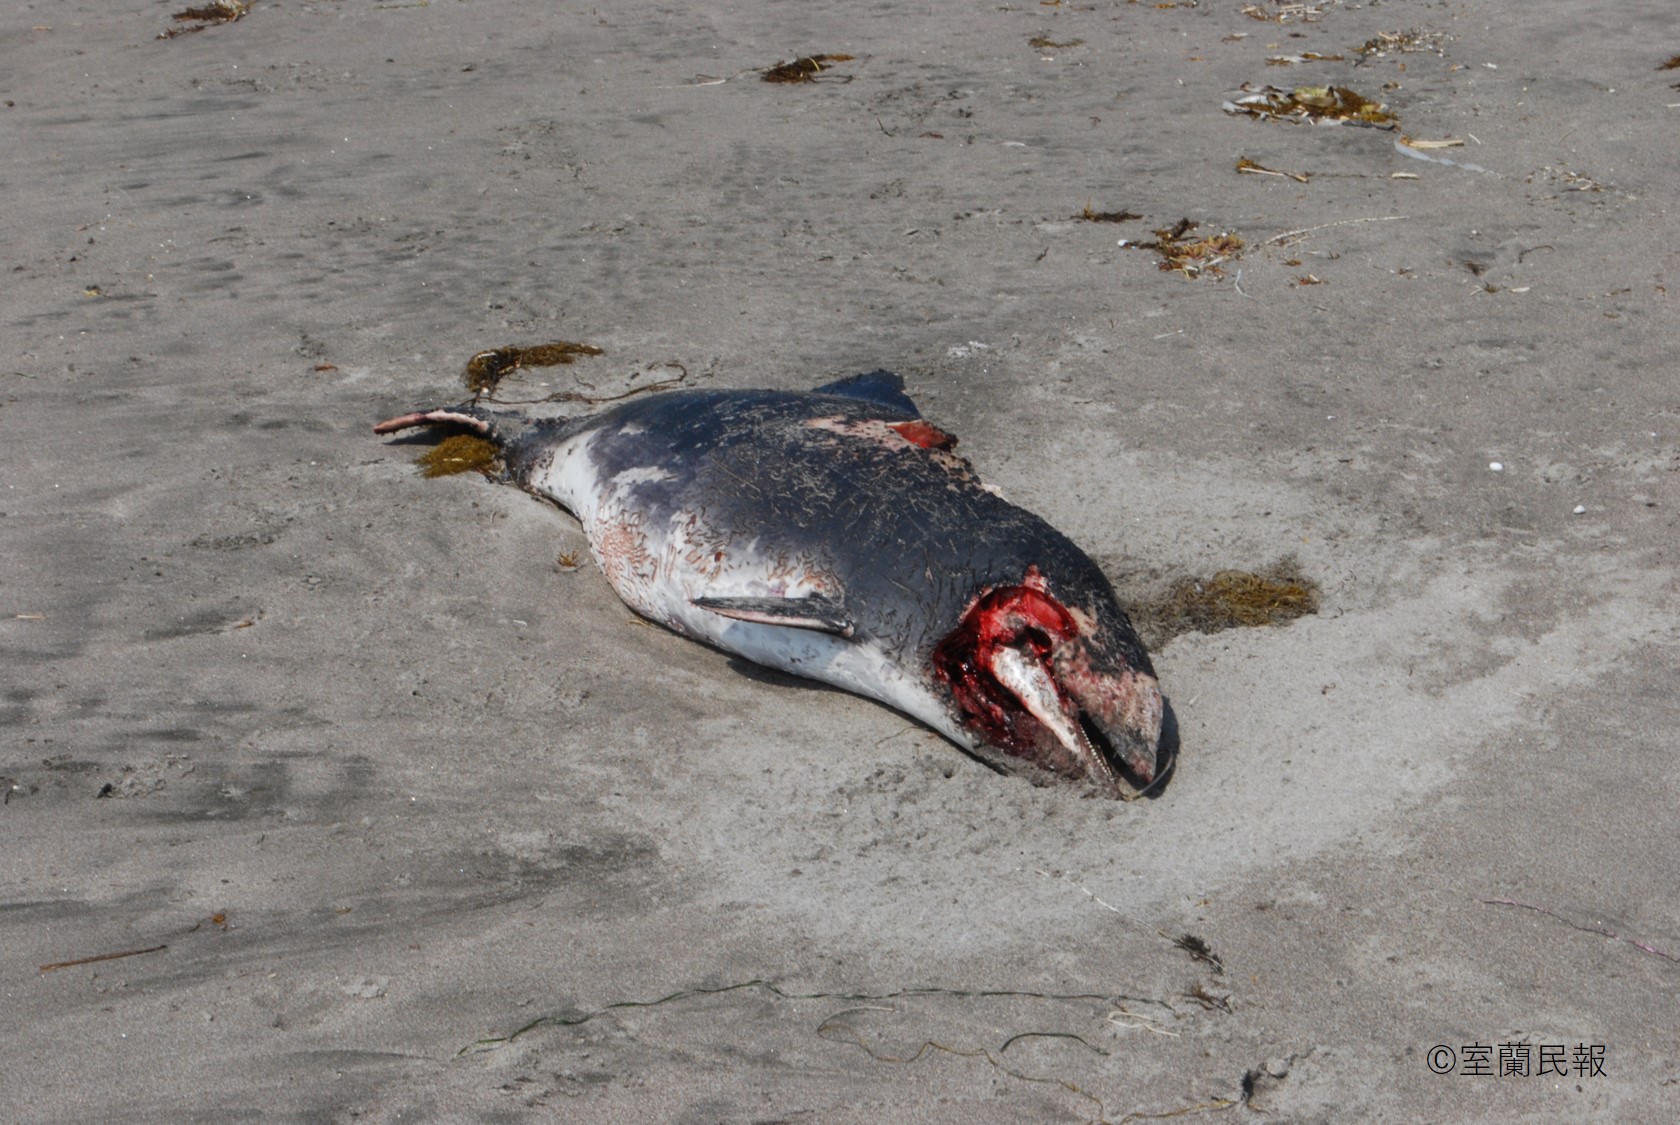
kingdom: Animalia
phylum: Chordata
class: Mammalia
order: Cetacea
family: Phocoenidae
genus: Phocoena
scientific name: Phocoena phocoena
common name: Harbour porpoise
